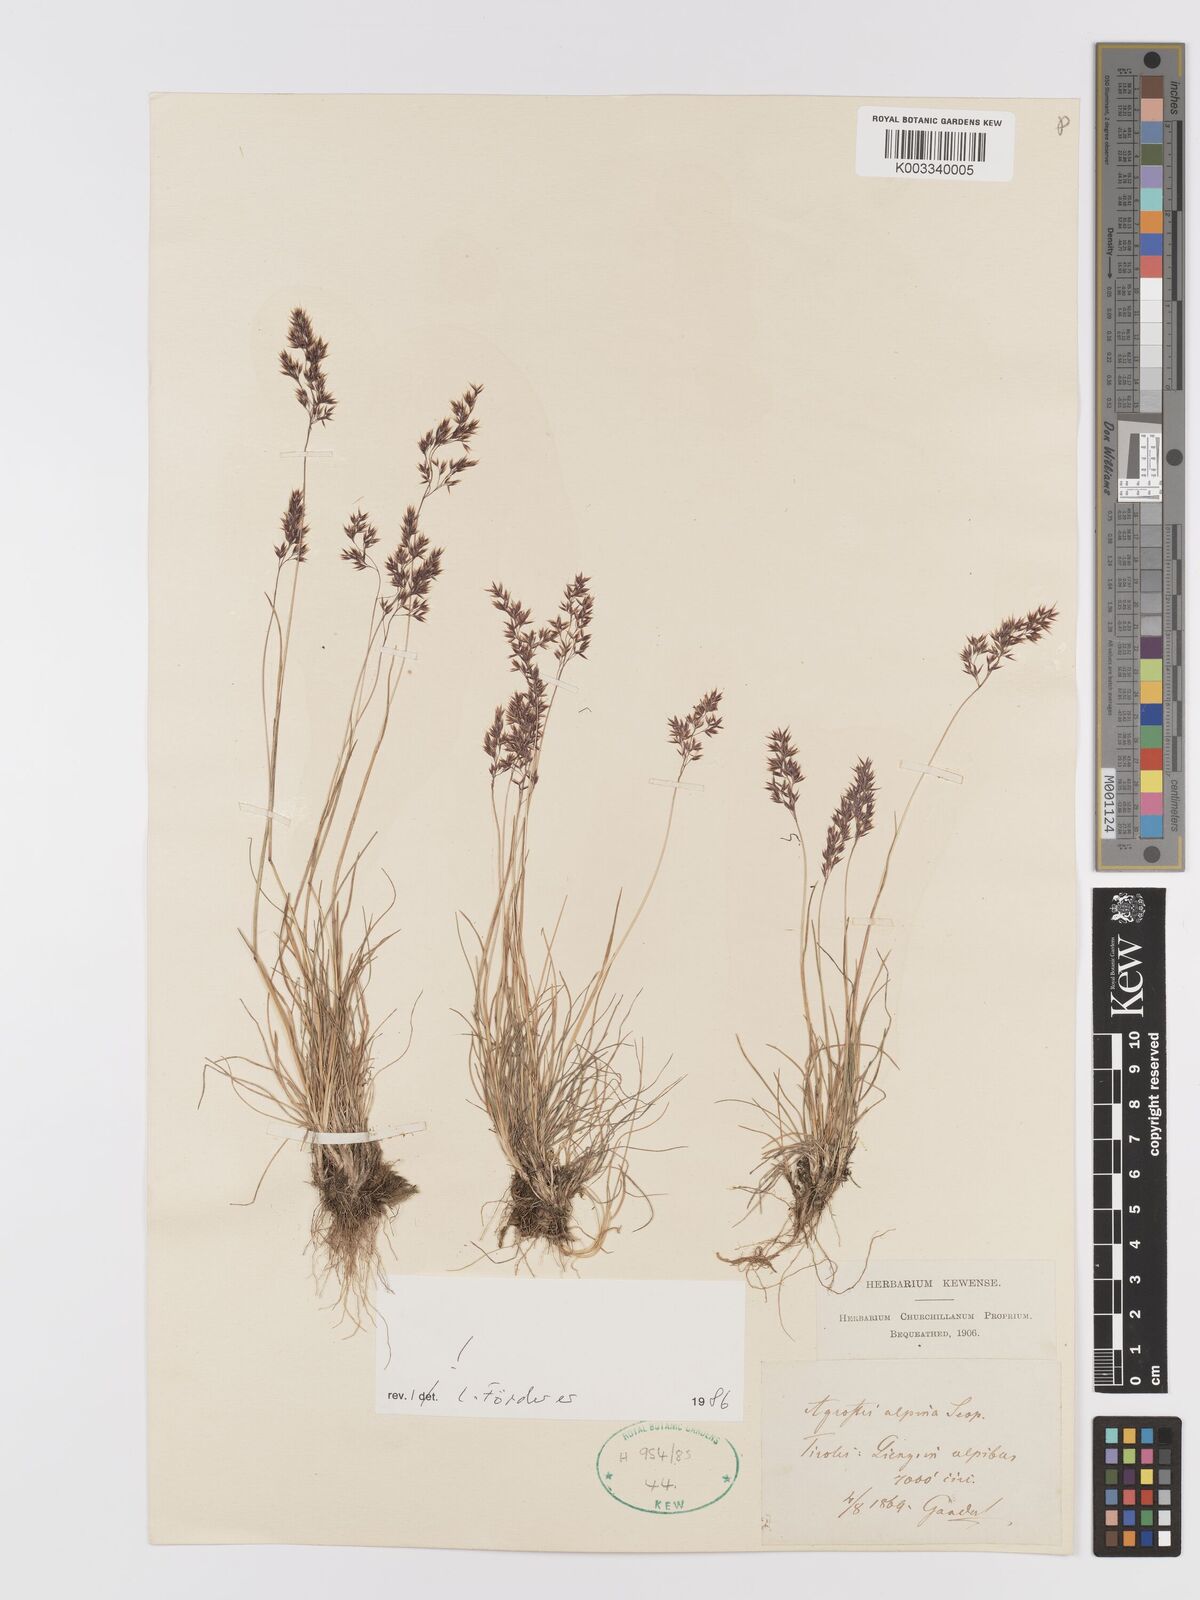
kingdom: Plantae
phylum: Tracheophyta
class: Liliopsida
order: Poales
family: Poaceae
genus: Alpagrostis
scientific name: Alpagrostis alpina
